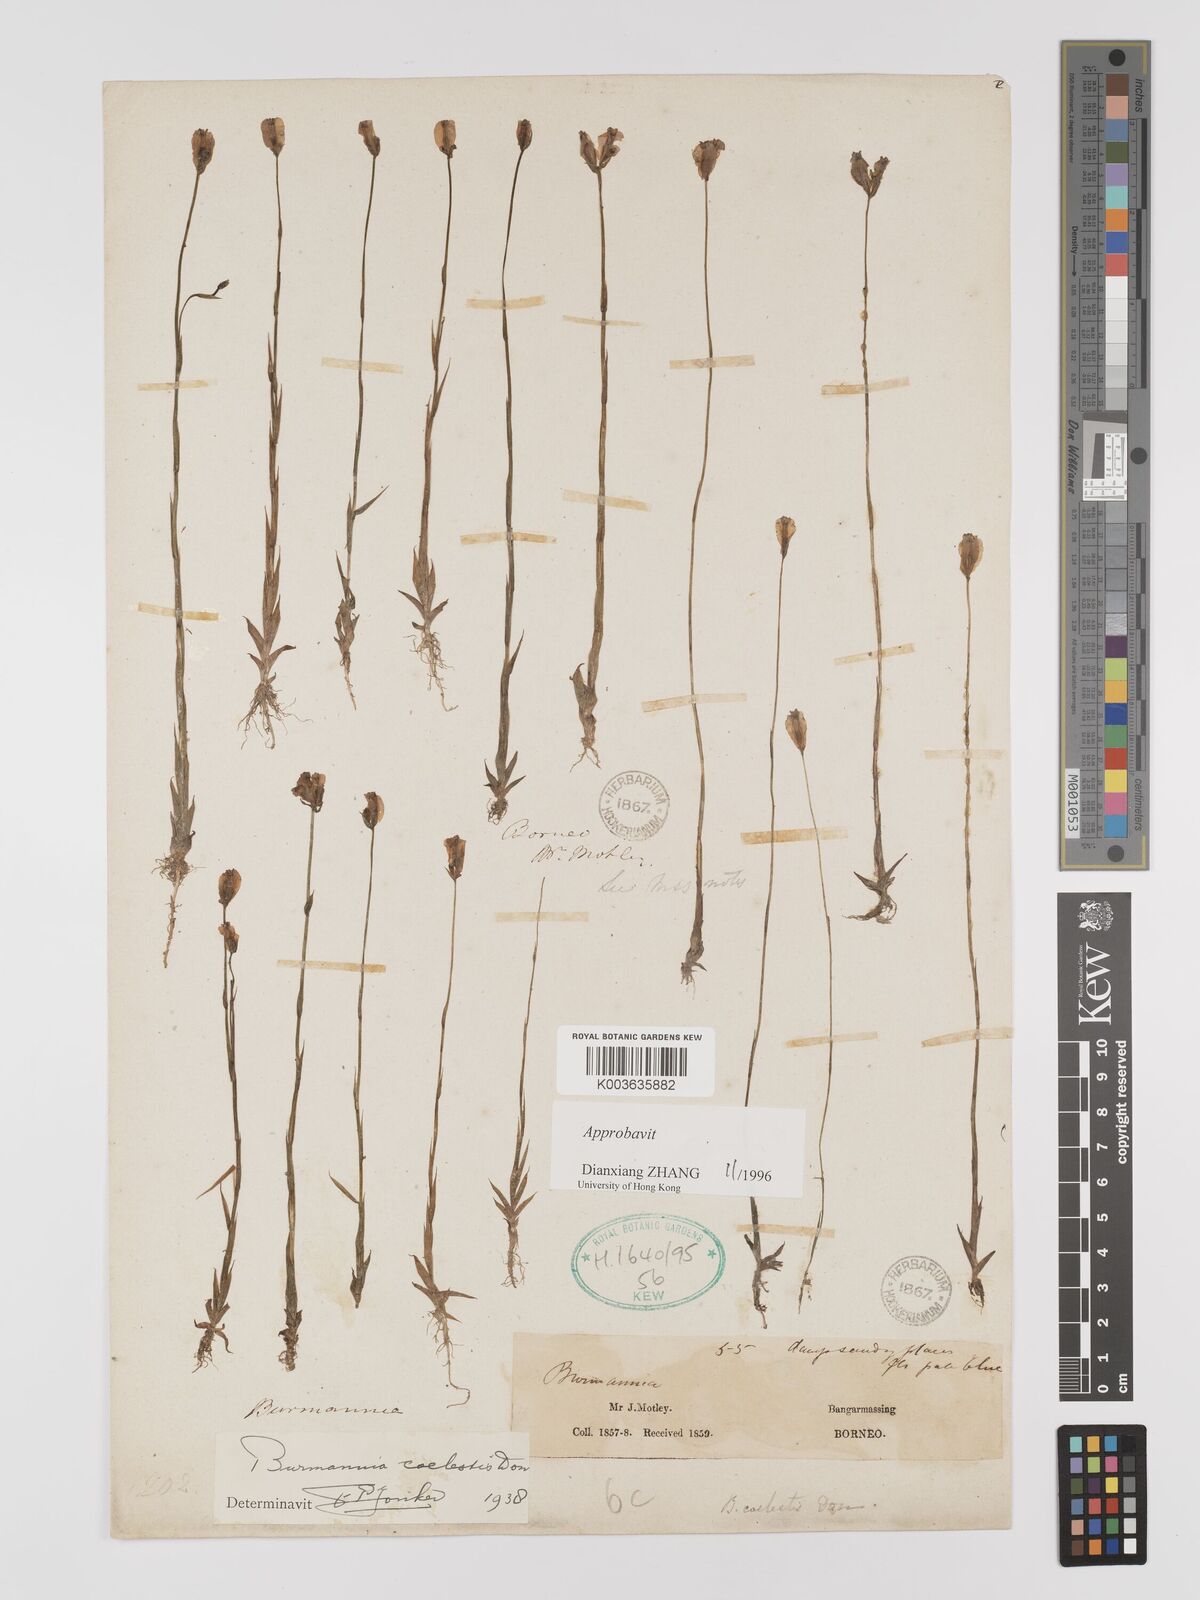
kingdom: Plantae
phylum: Tracheophyta
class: Liliopsida
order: Dioscoreales
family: Burmanniaceae
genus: Burmannia
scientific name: Burmannia coelestis
